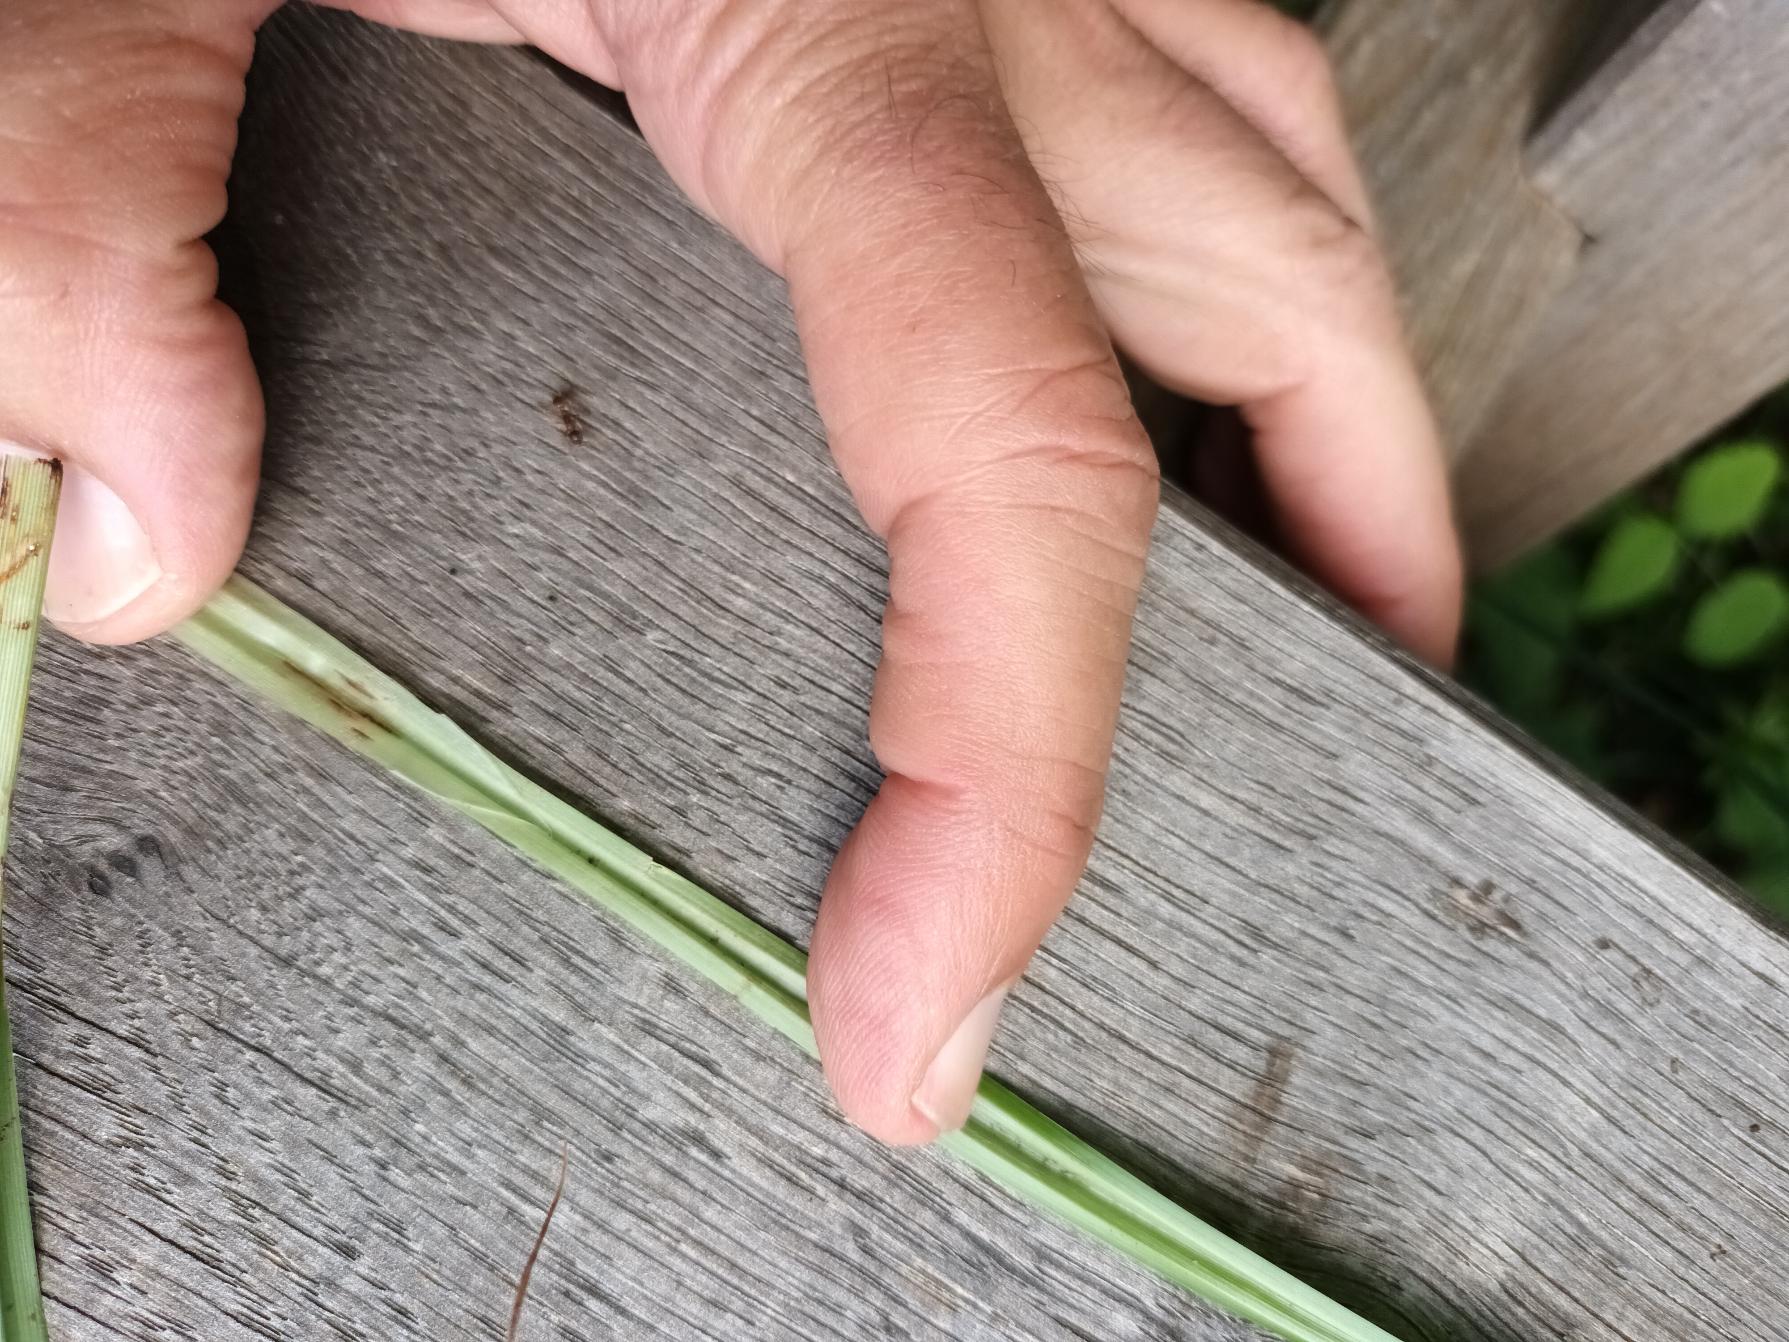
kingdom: Plantae
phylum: Tracheophyta
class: Liliopsida
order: Poales
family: Cyperaceae
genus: Carex
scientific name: Carex acutiformis
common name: Kær-star
